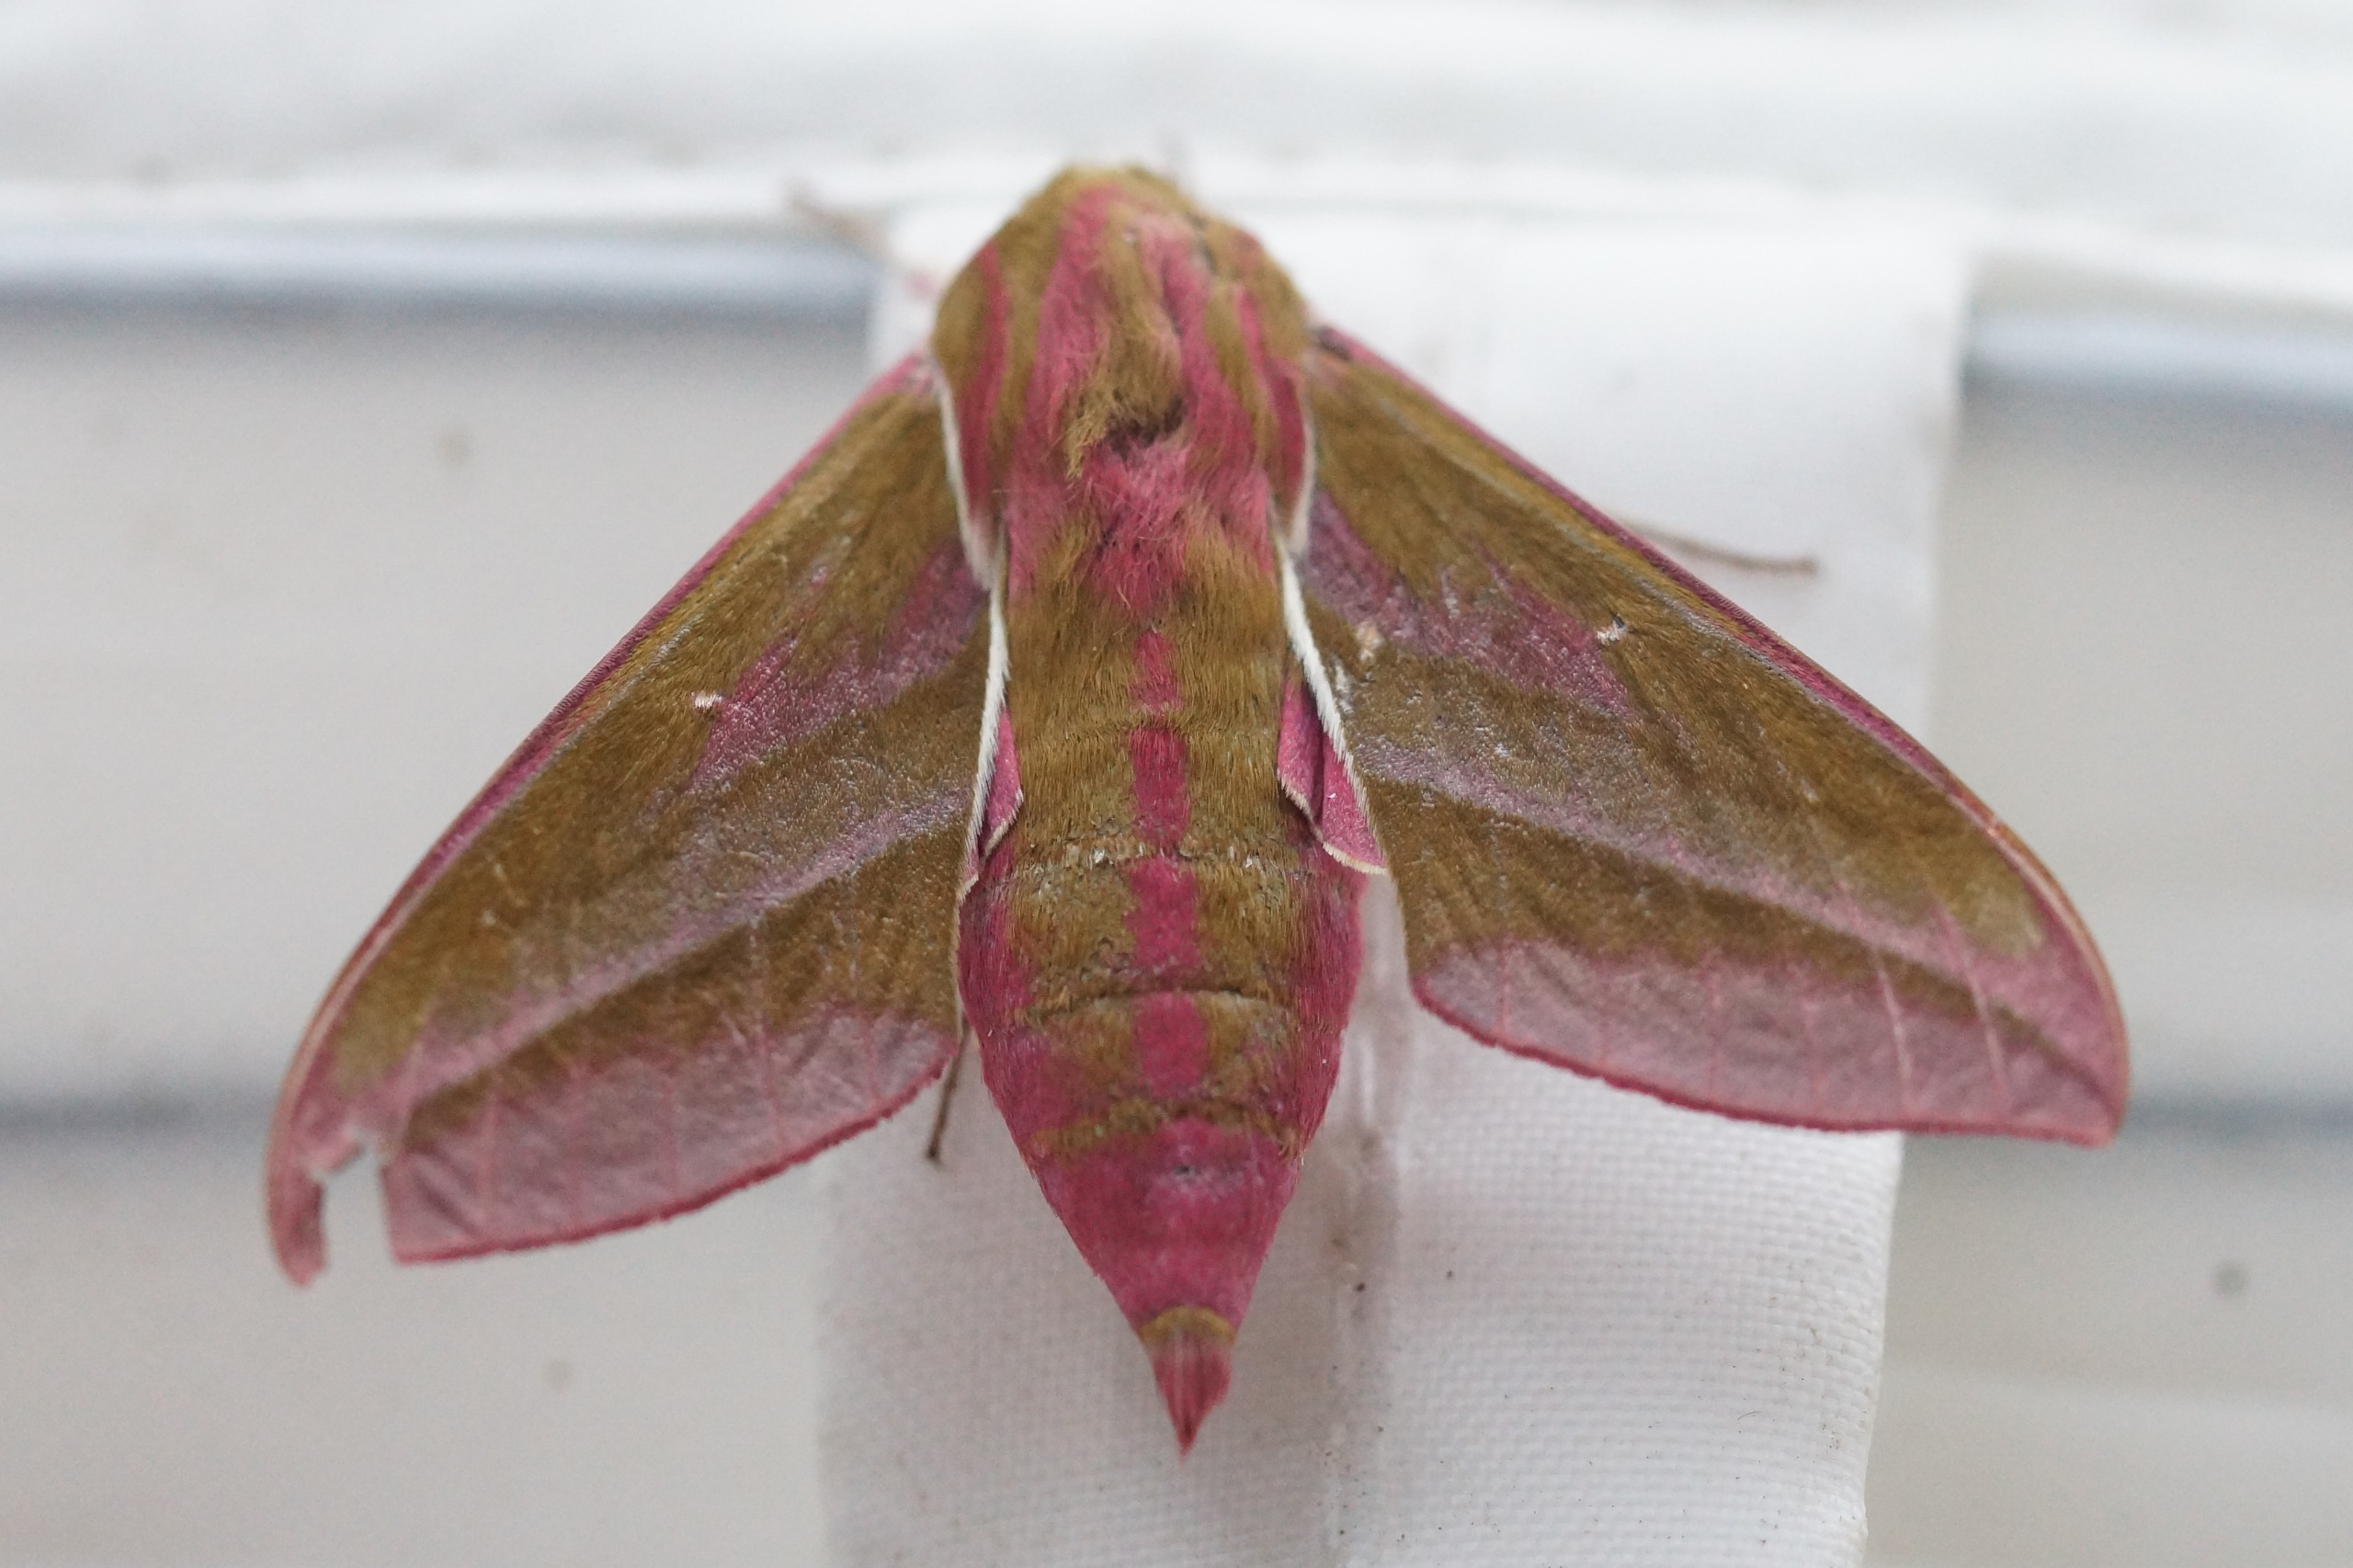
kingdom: Animalia
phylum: Arthropoda
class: Insecta
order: Lepidoptera
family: Sphingidae
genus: Deilephila
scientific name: Deilephila elpenor
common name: Dueurtsværmer
